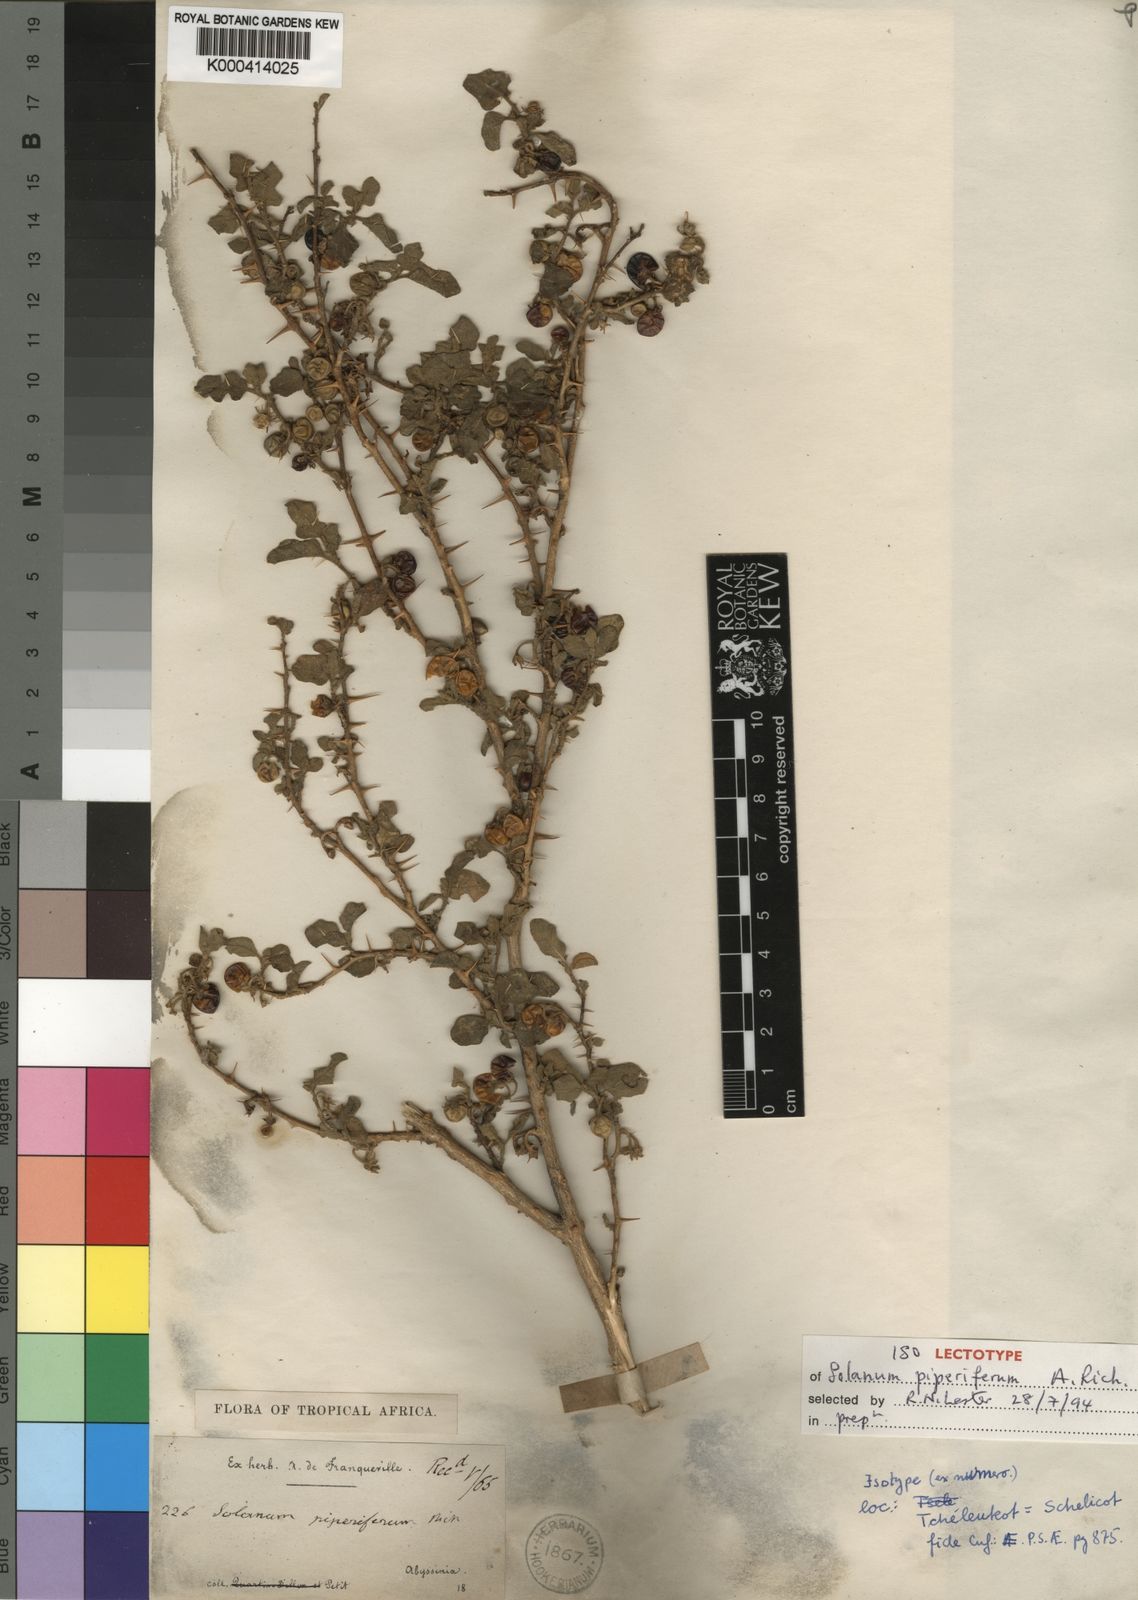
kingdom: Plantae
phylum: Tracheophyta
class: Magnoliopsida
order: Solanales
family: Solanaceae
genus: Solanum
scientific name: Solanum adoense
